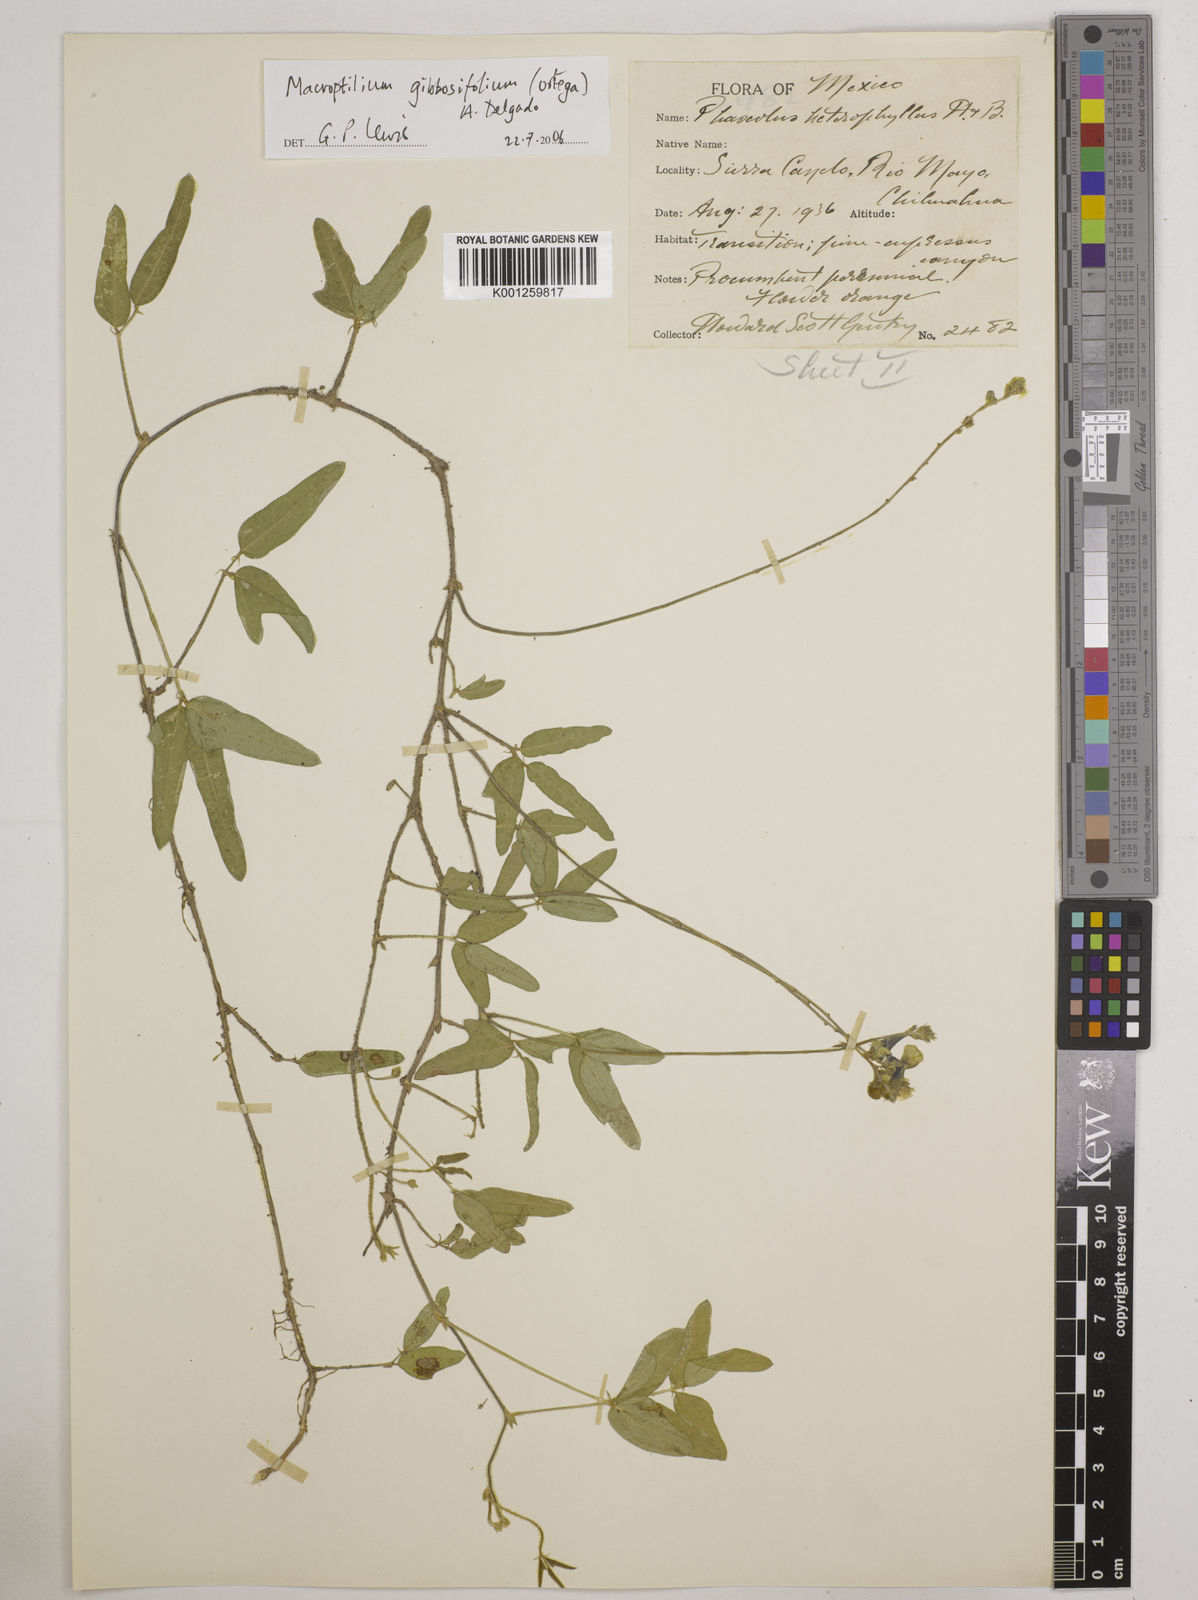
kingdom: Plantae
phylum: Tracheophyta
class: Magnoliopsida
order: Fabales
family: Fabaceae
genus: Macroptilium
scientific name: Macroptilium gibbosifolium
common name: Variableleaf bushbean
